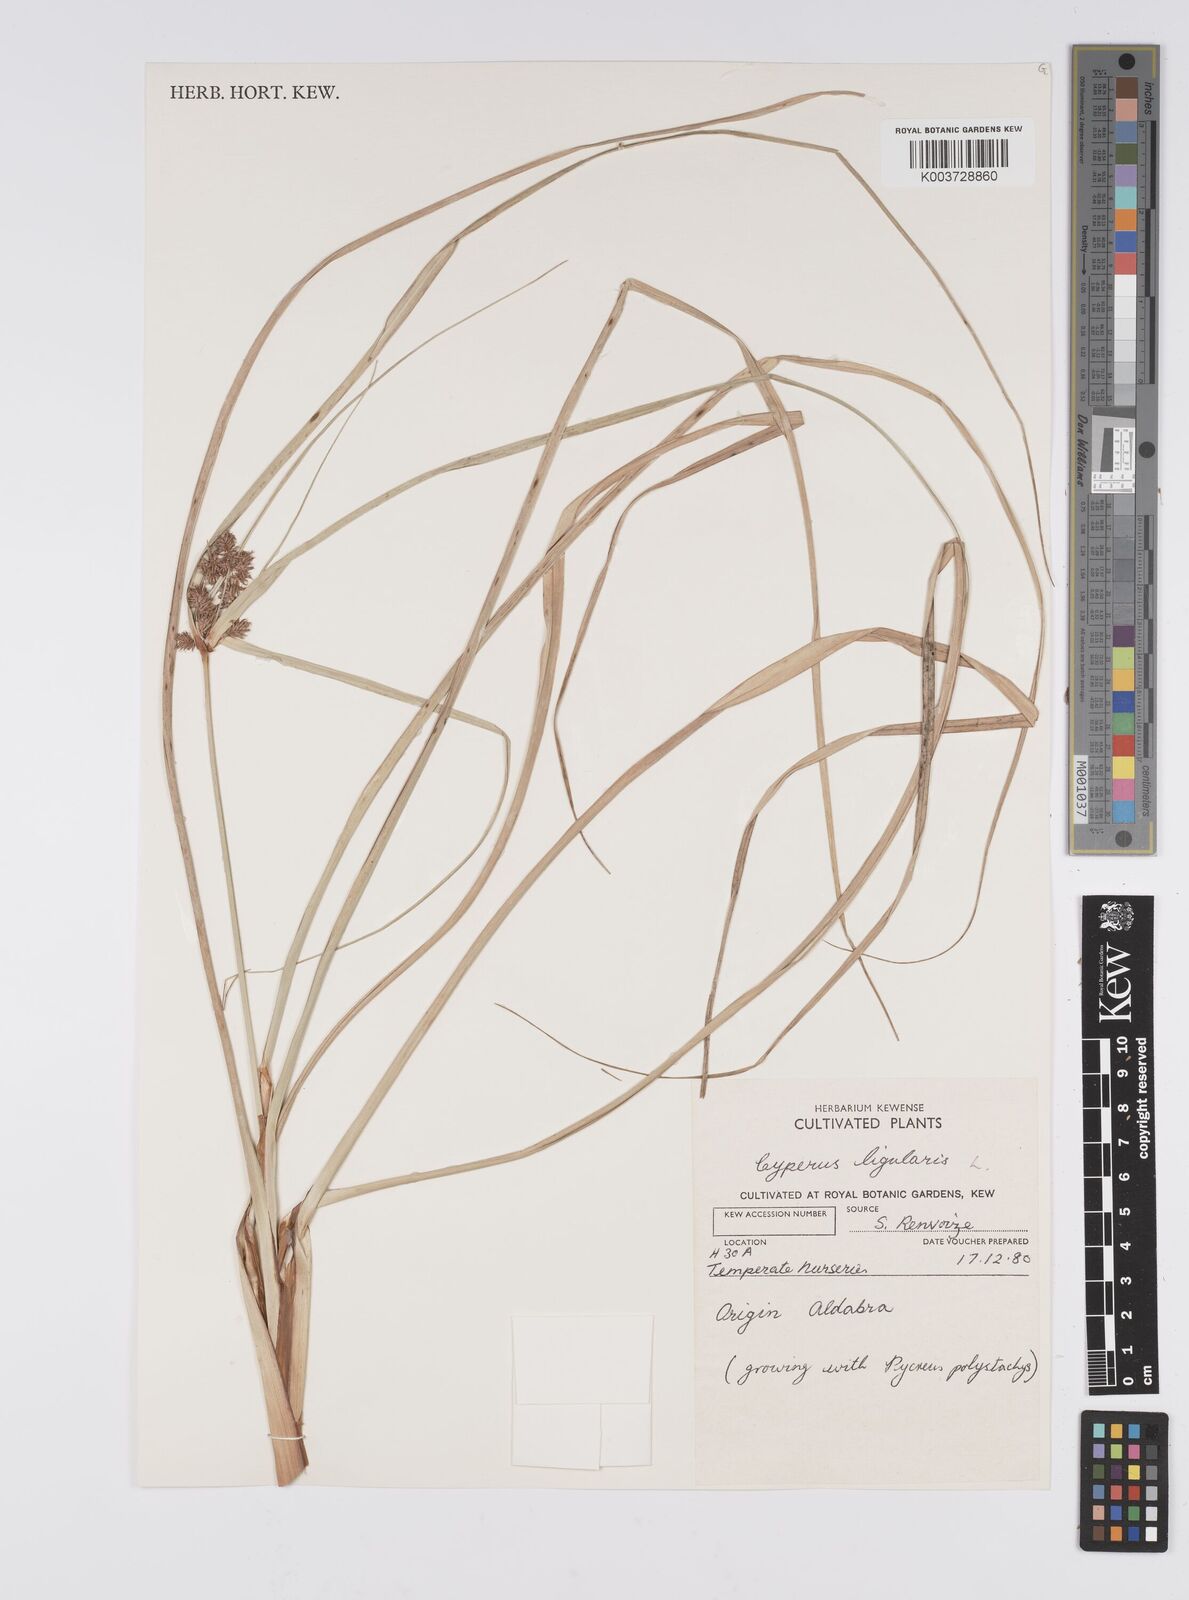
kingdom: Plantae
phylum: Tracheophyta
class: Liliopsida
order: Poales
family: Cyperaceae
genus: Cyperus
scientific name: Cyperus javanicus
